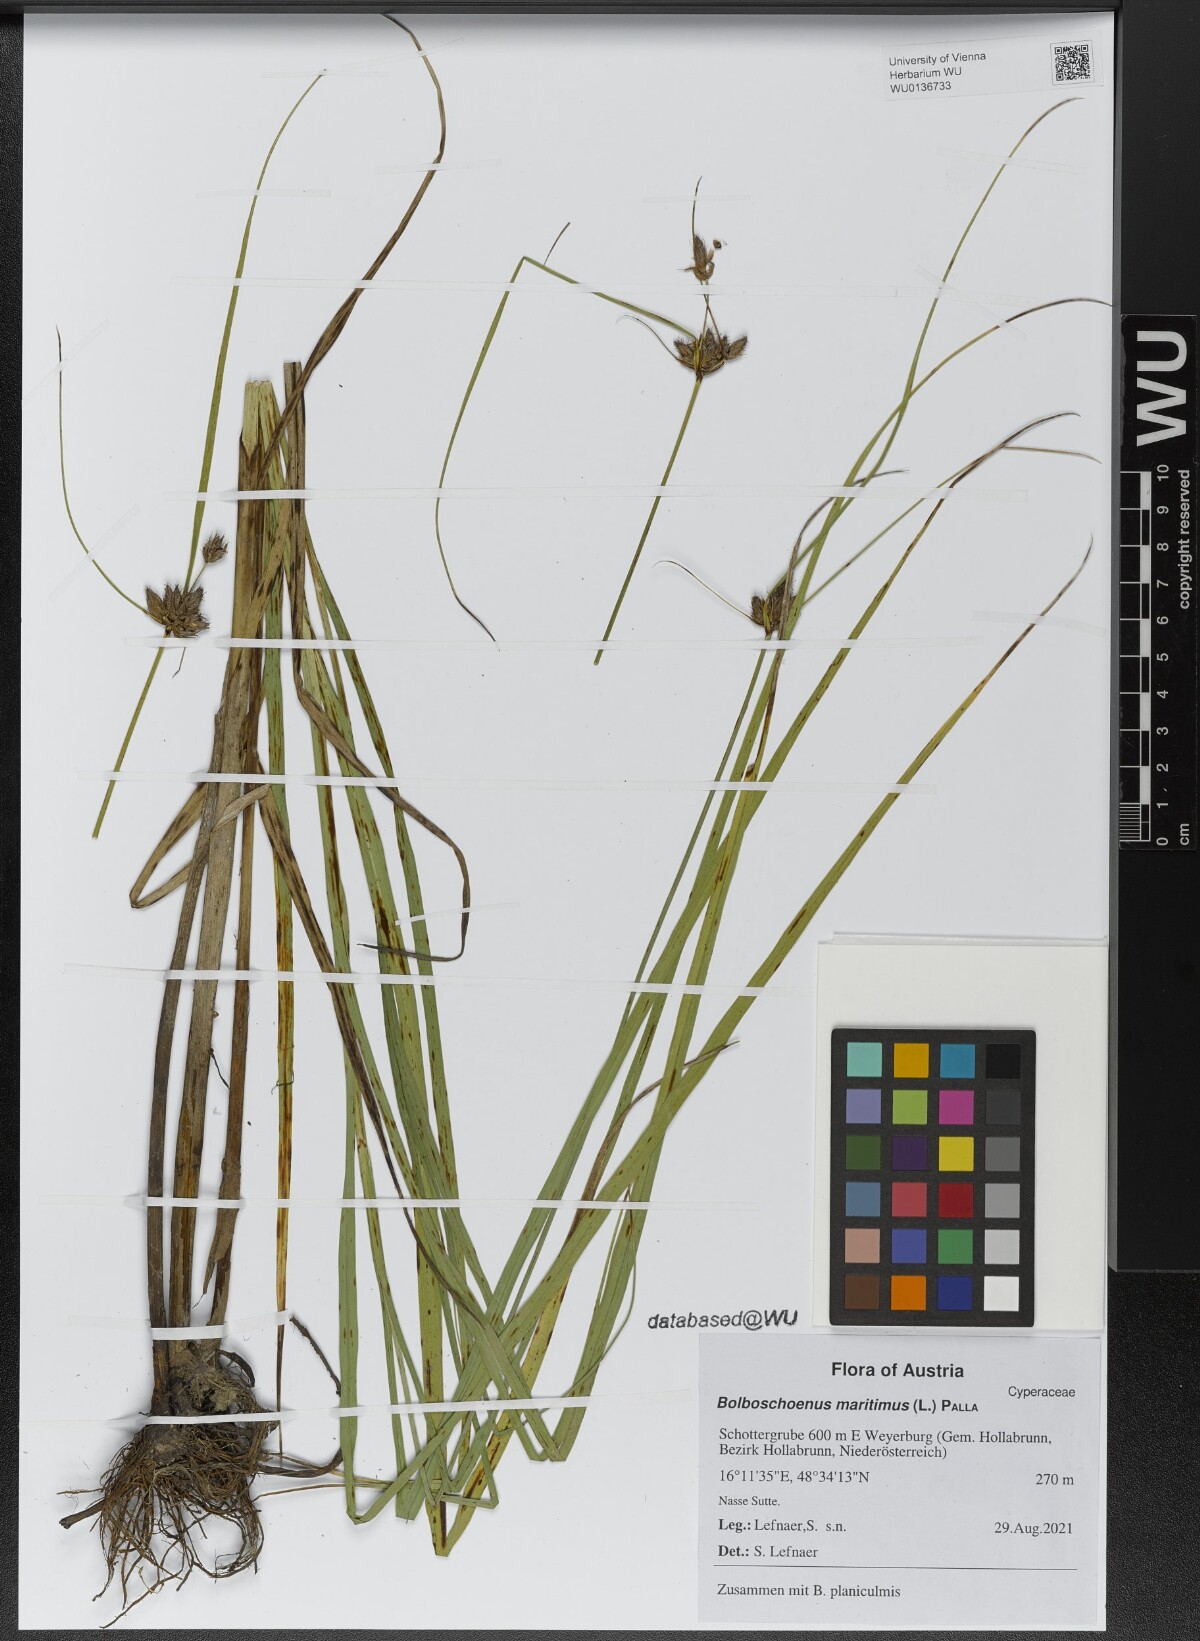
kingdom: Plantae
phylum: Tracheophyta
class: Liliopsida
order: Poales
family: Cyperaceae
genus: Bolboschoenus
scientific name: Bolboschoenus maritimus
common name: Sea club-rush
